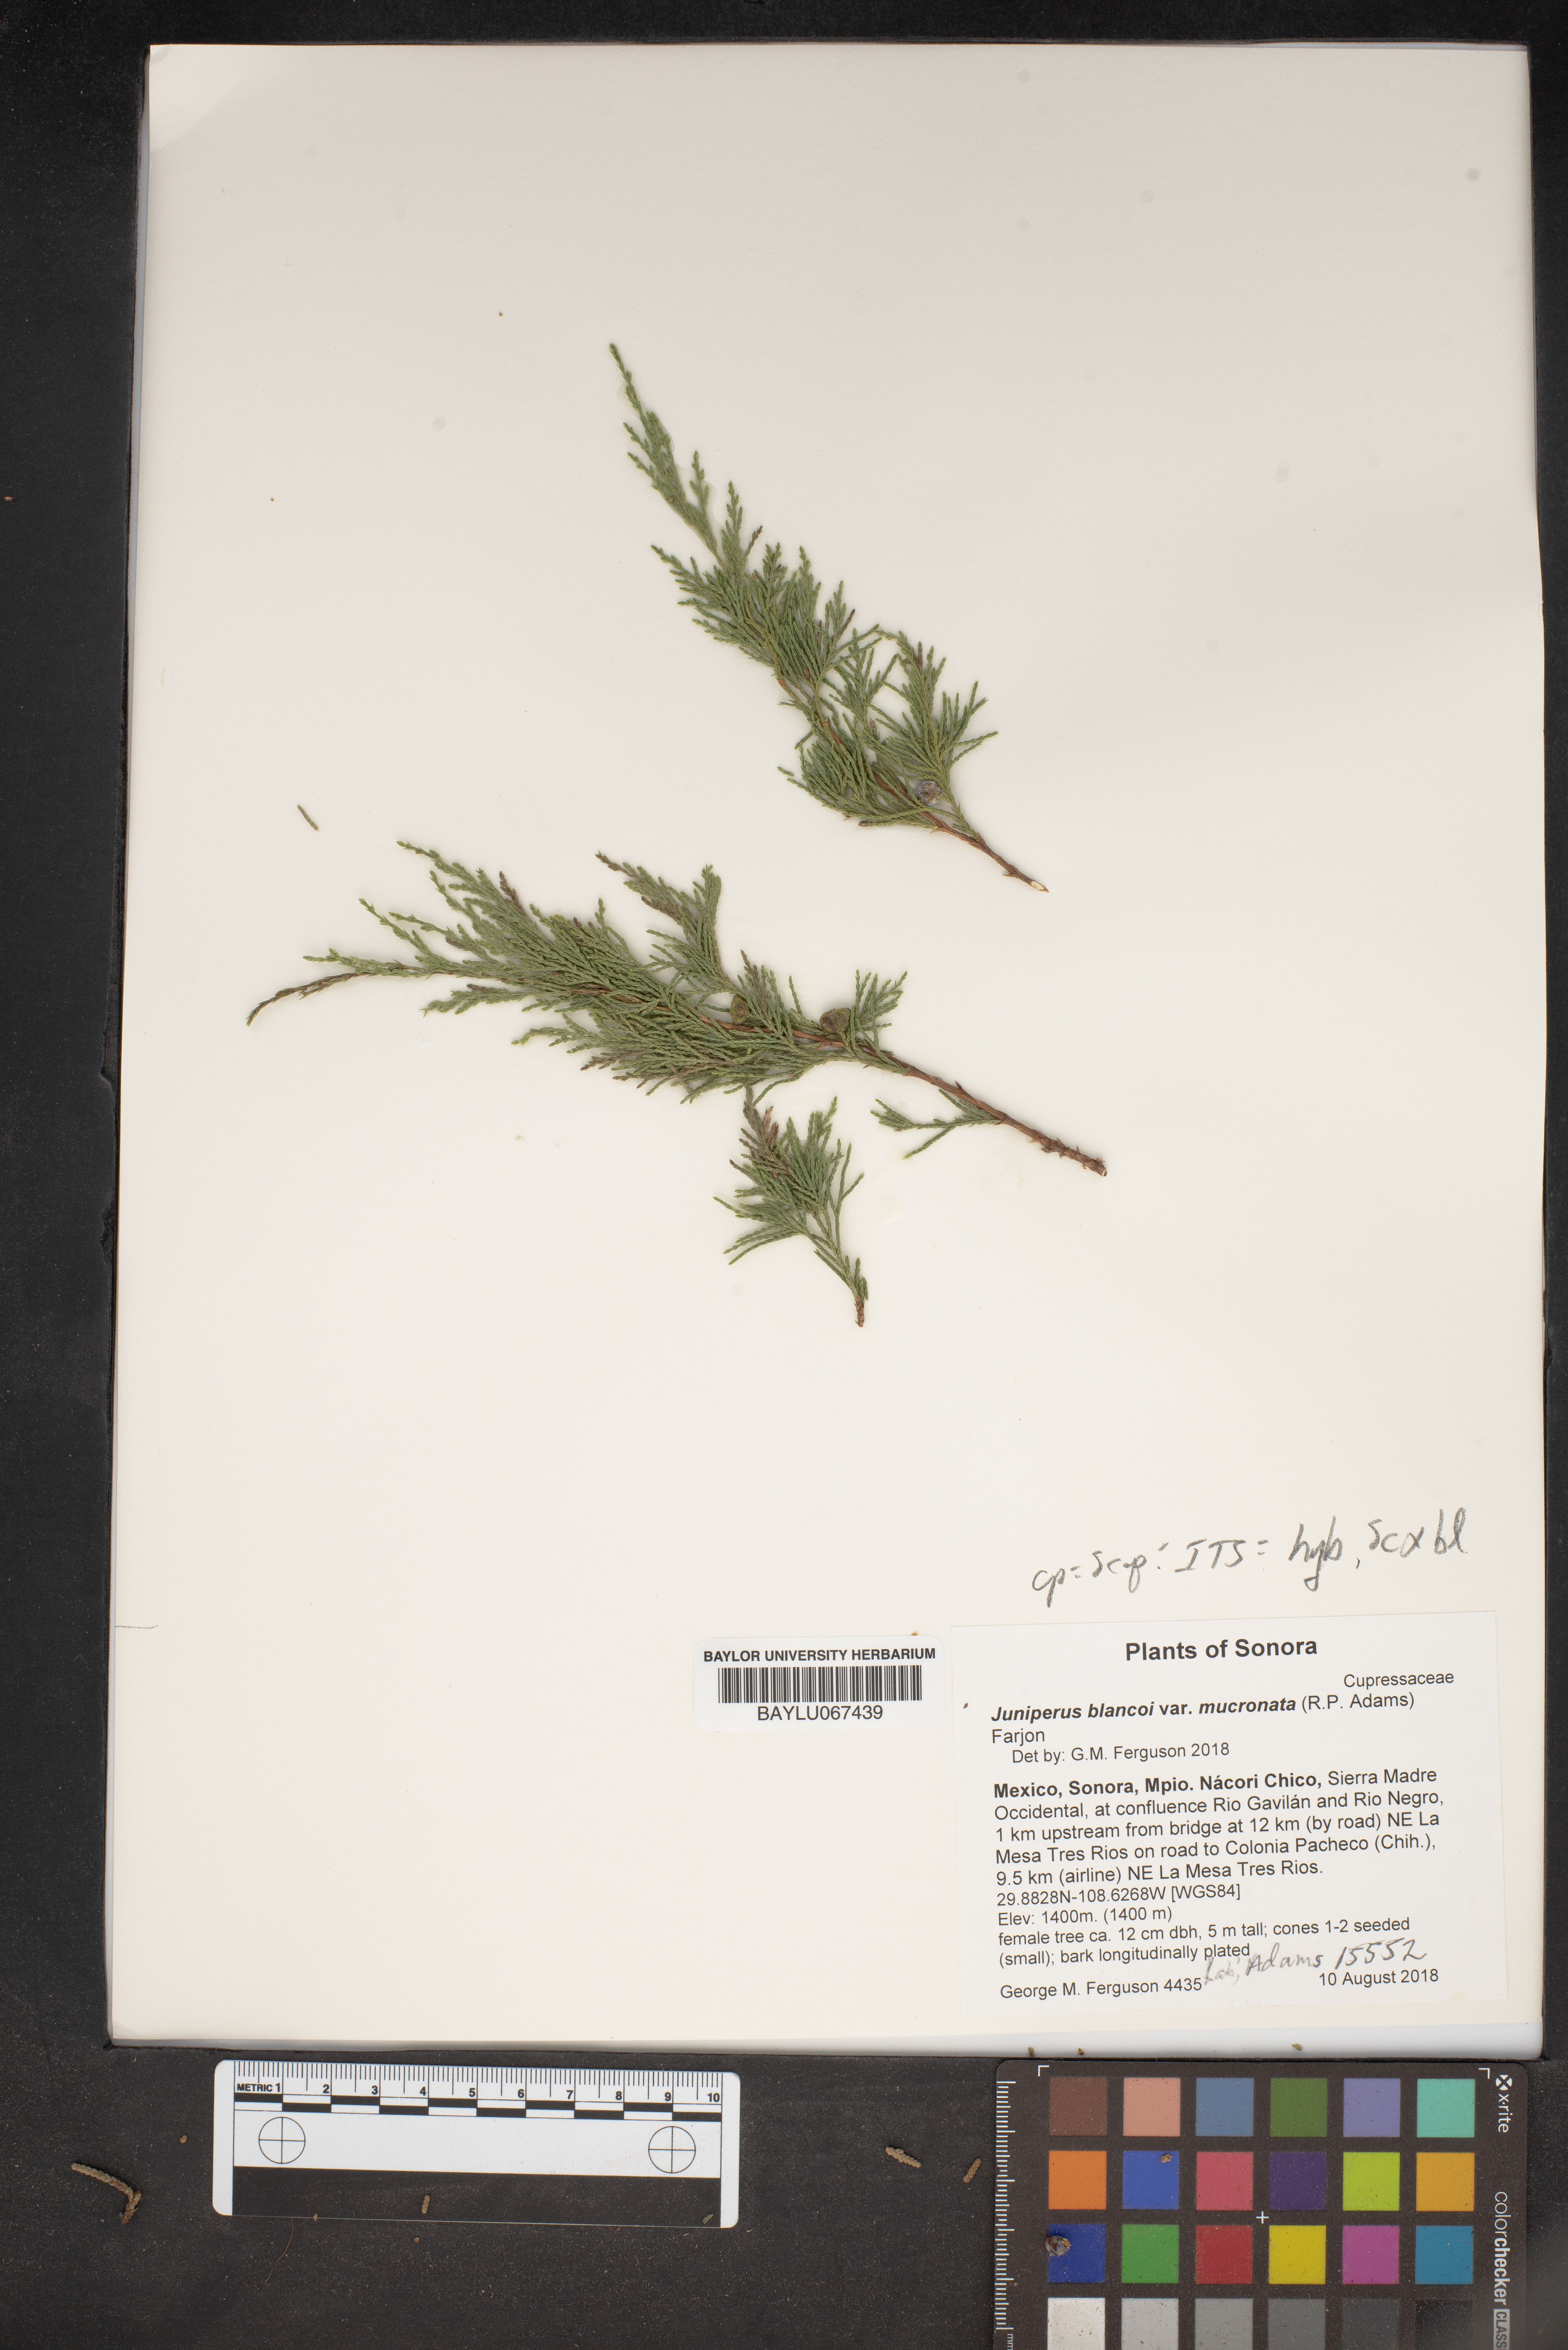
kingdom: Plantae
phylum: Tracheophyta
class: Pinopsida
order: Pinales
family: Cupressaceae
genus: Juniperus
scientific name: Juniperus blancoi
